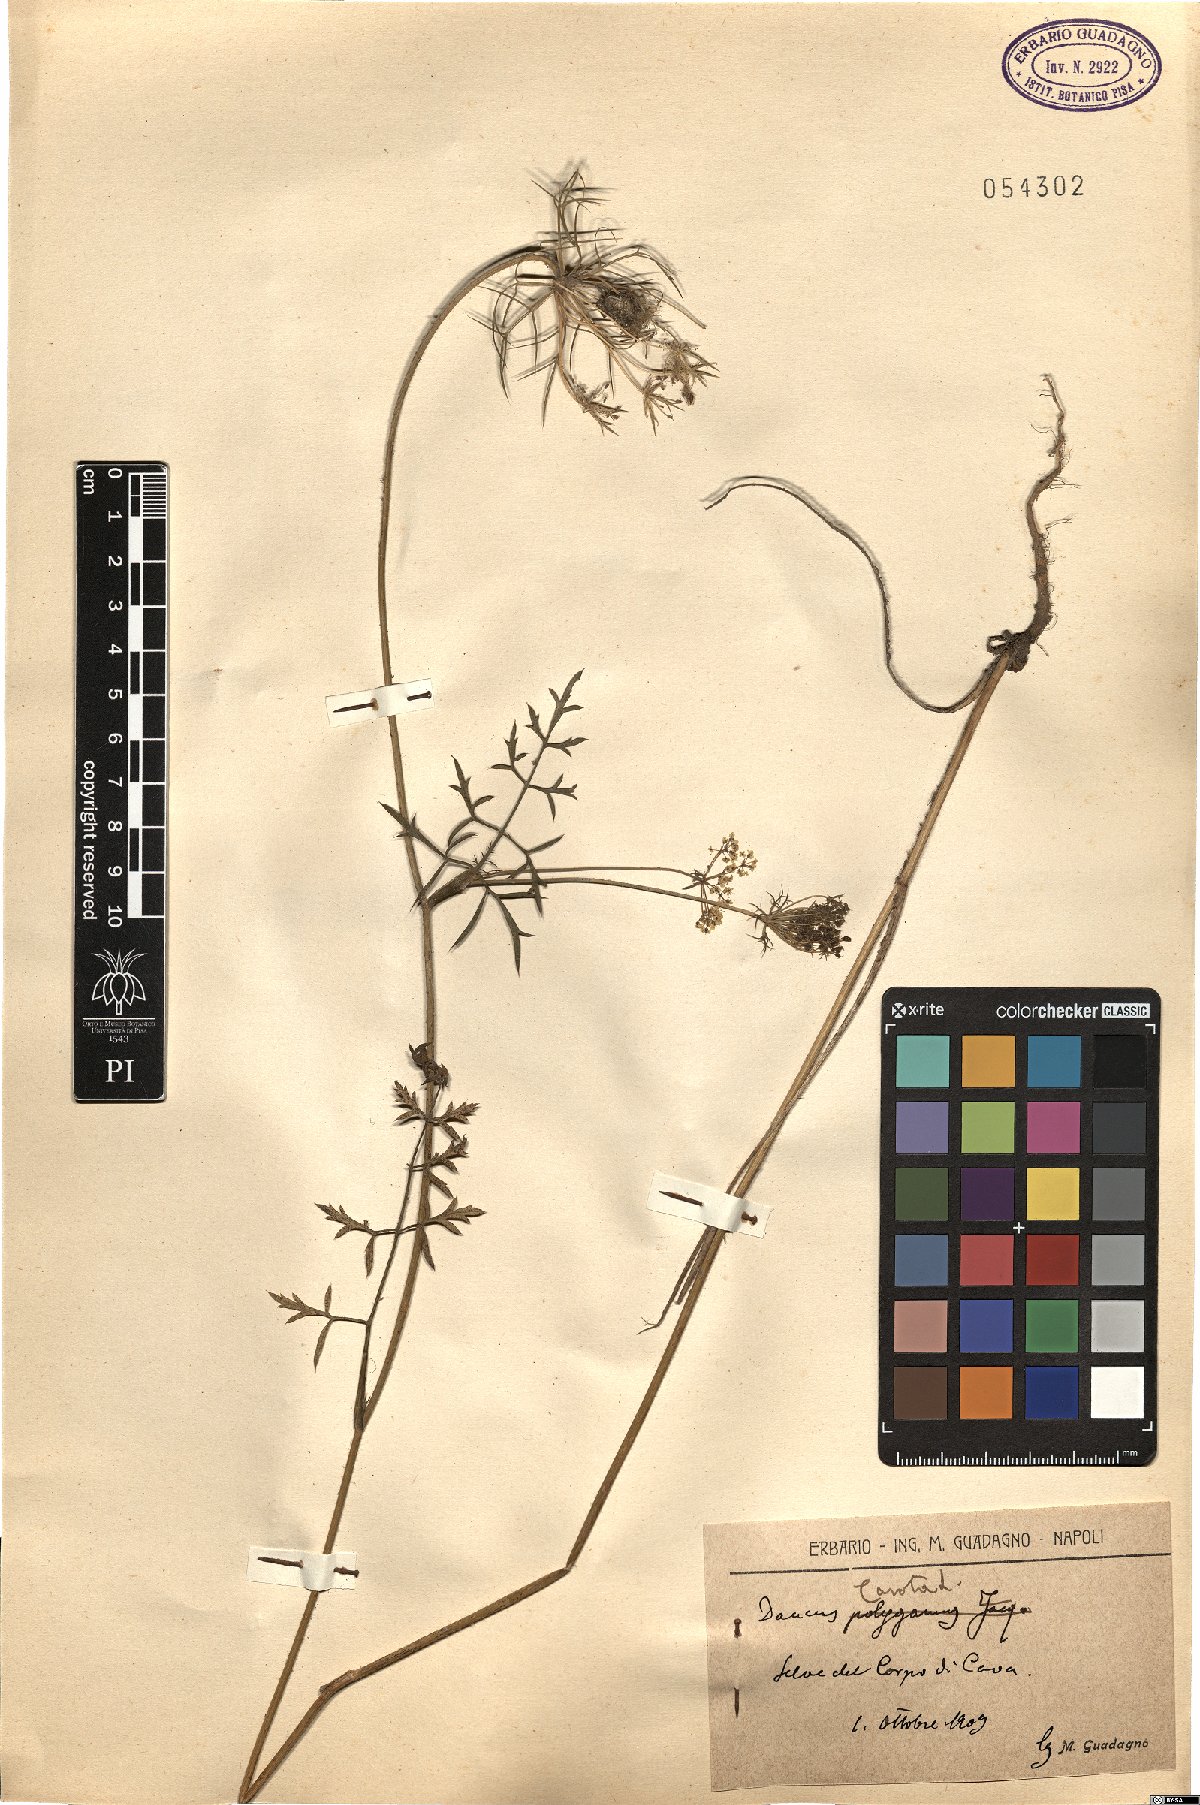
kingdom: Plantae
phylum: Tracheophyta
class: Magnoliopsida
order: Apiales
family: Apiaceae
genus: Daucus
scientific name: Daucus carota
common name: Wild carrot
